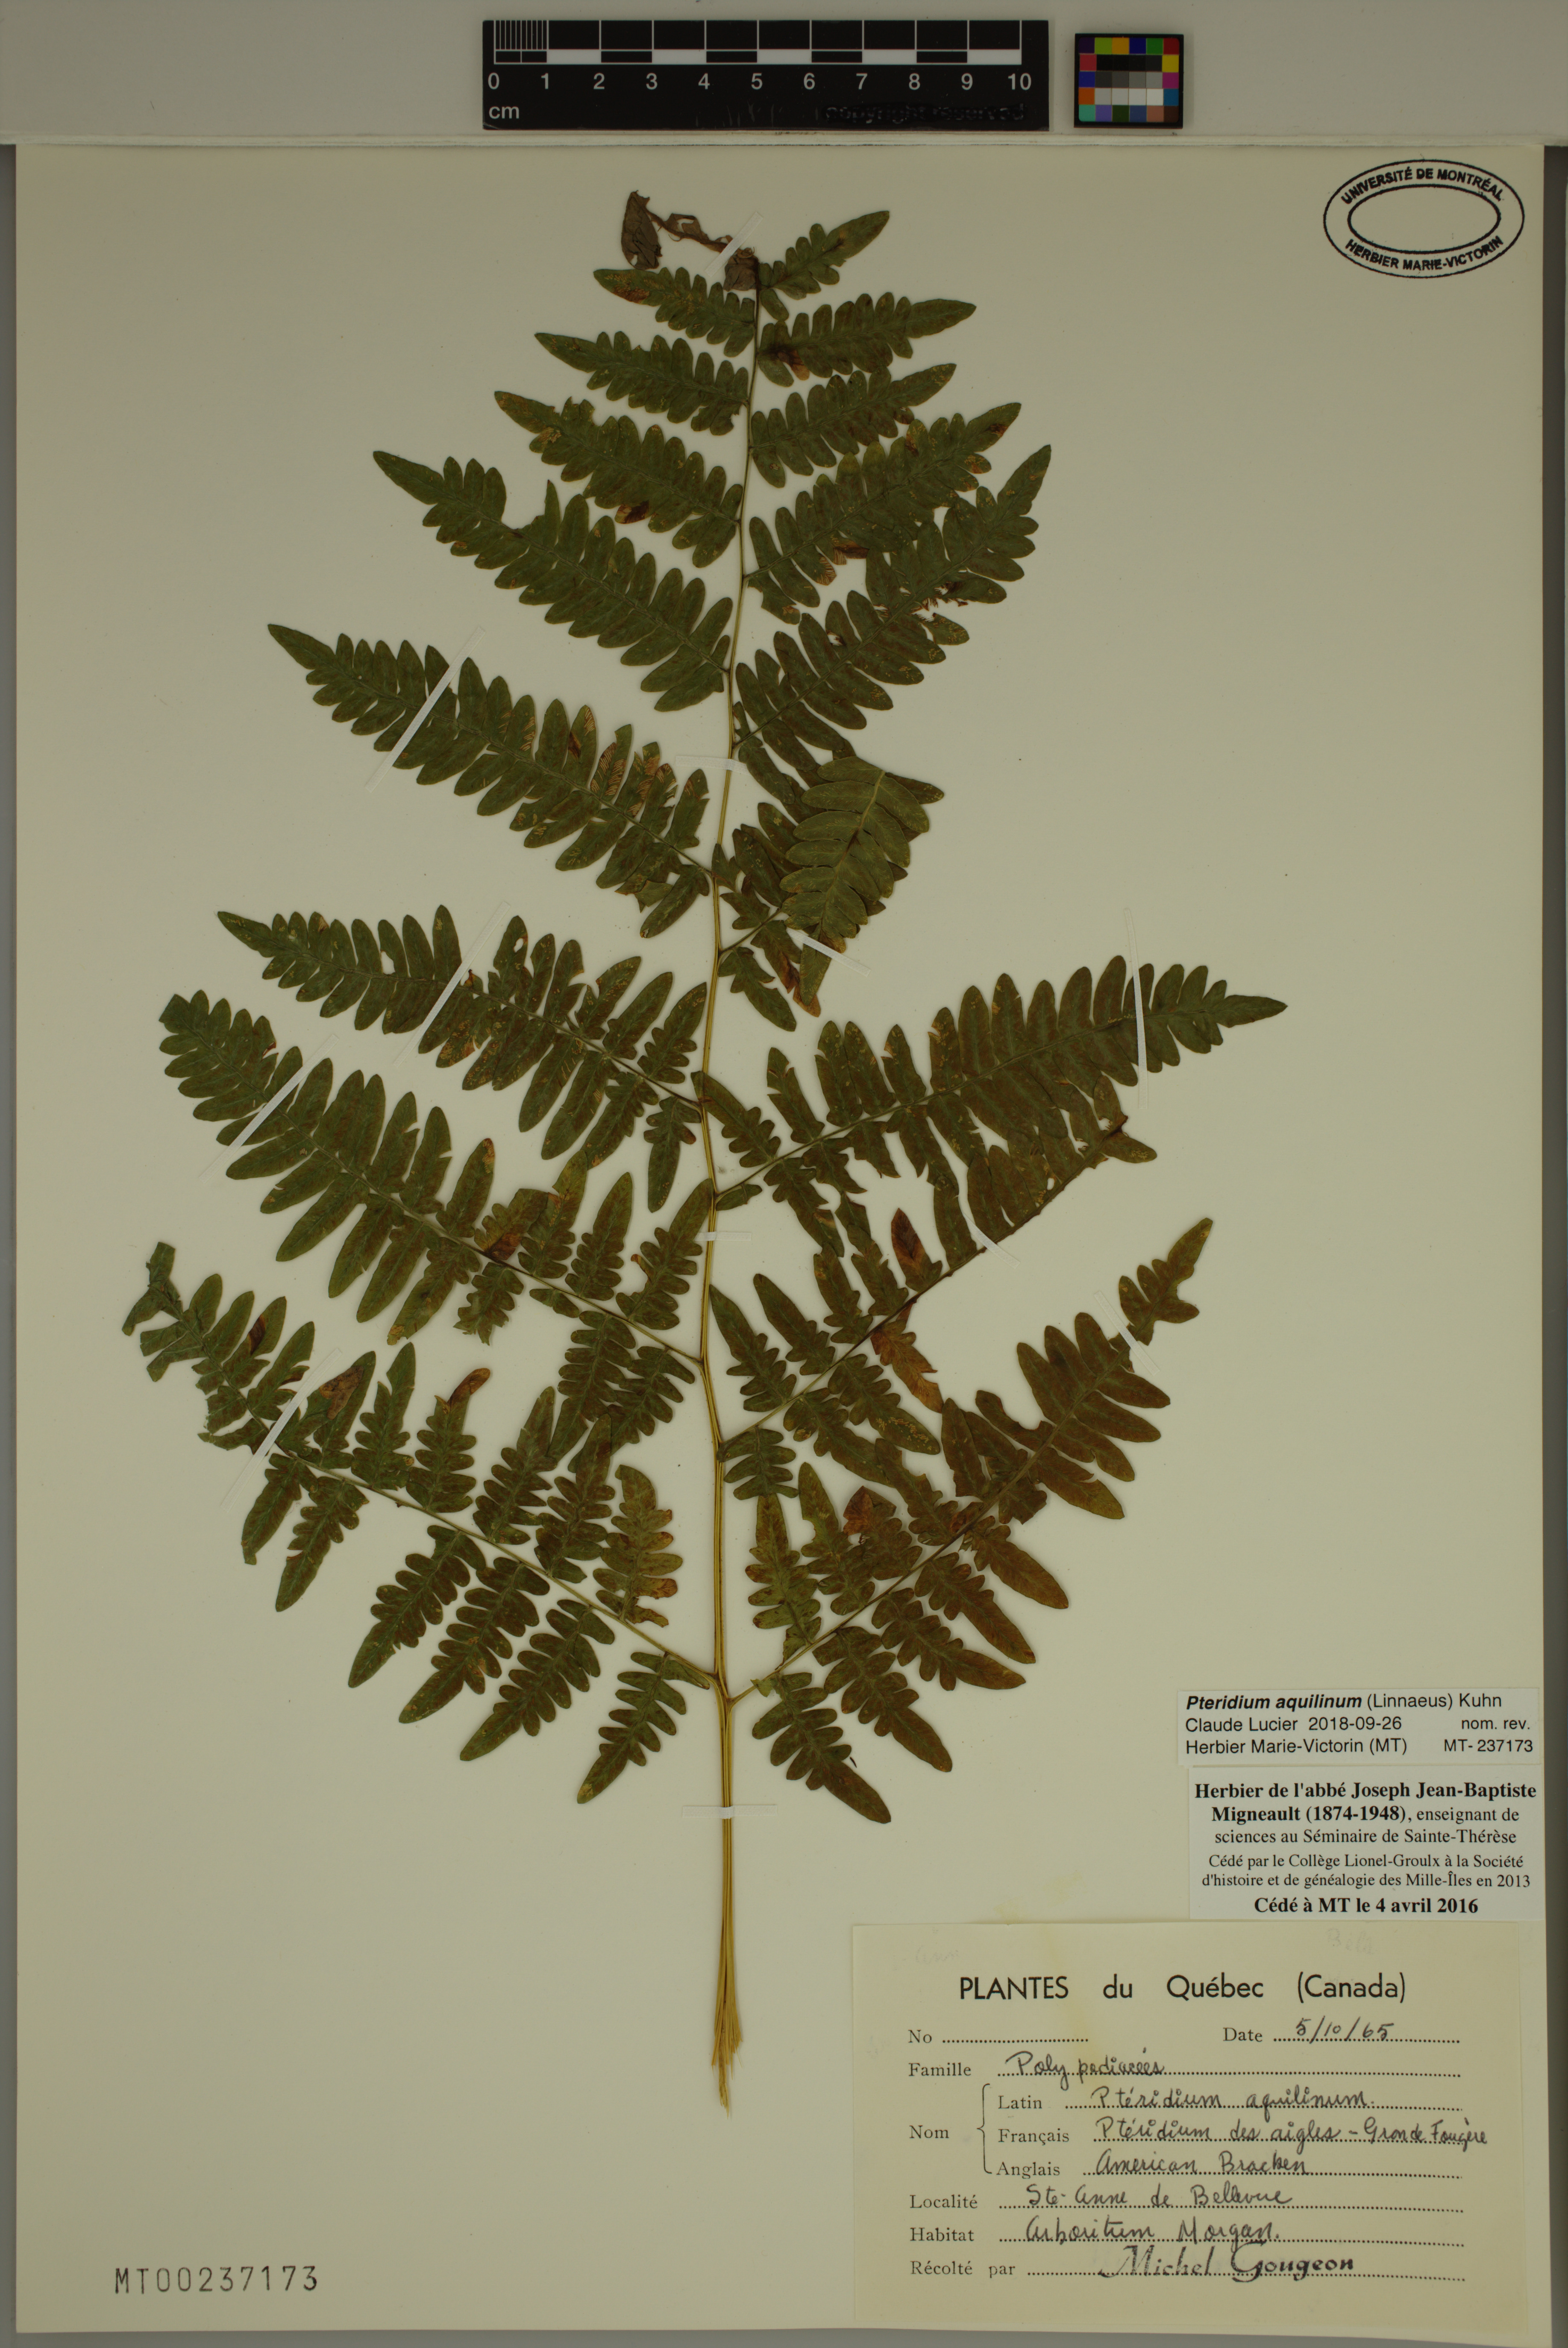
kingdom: Plantae
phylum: Tracheophyta
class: Polypodiopsida
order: Polypodiales
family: Dennstaedtiaceae
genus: Pteridium
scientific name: Pteridium aquilinum
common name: Bracken
